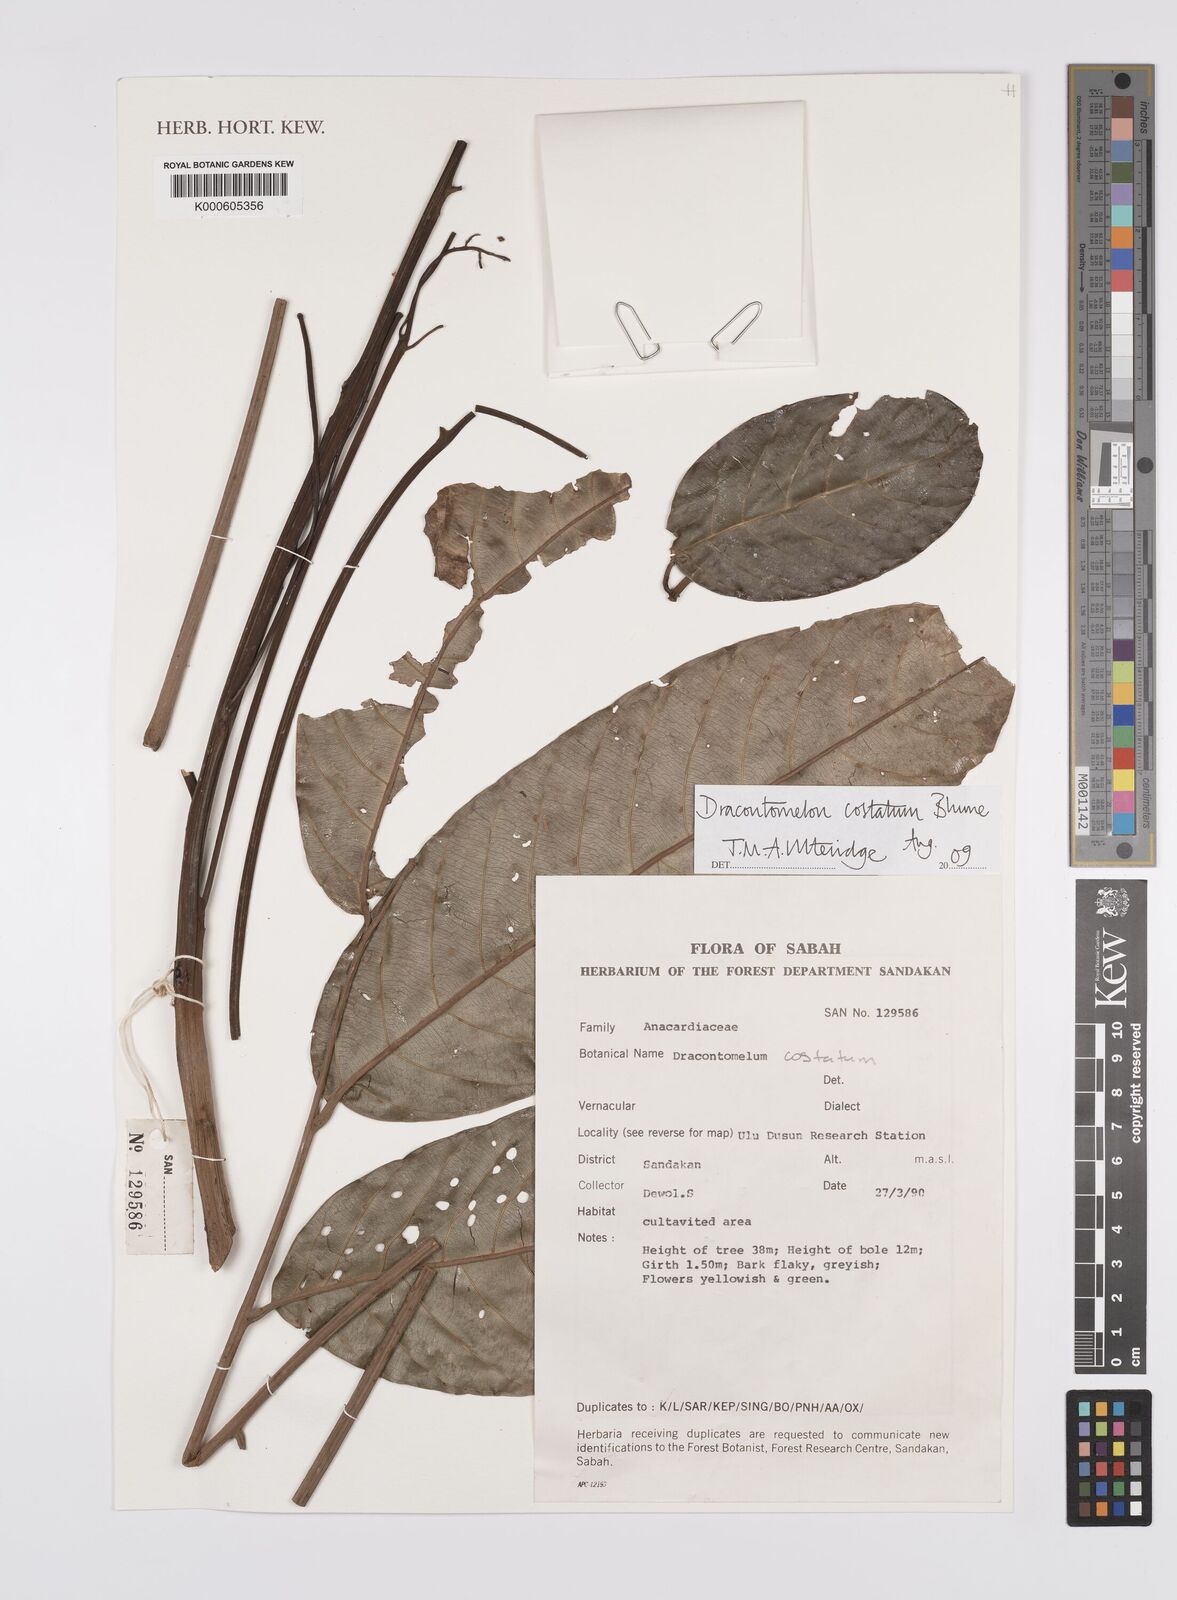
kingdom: Plantae
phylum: Tracheophyta
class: Magnoliopsida
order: Sapindales
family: Anacardiaceae
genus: Dracontomelon
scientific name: Dracontomelon costatum
